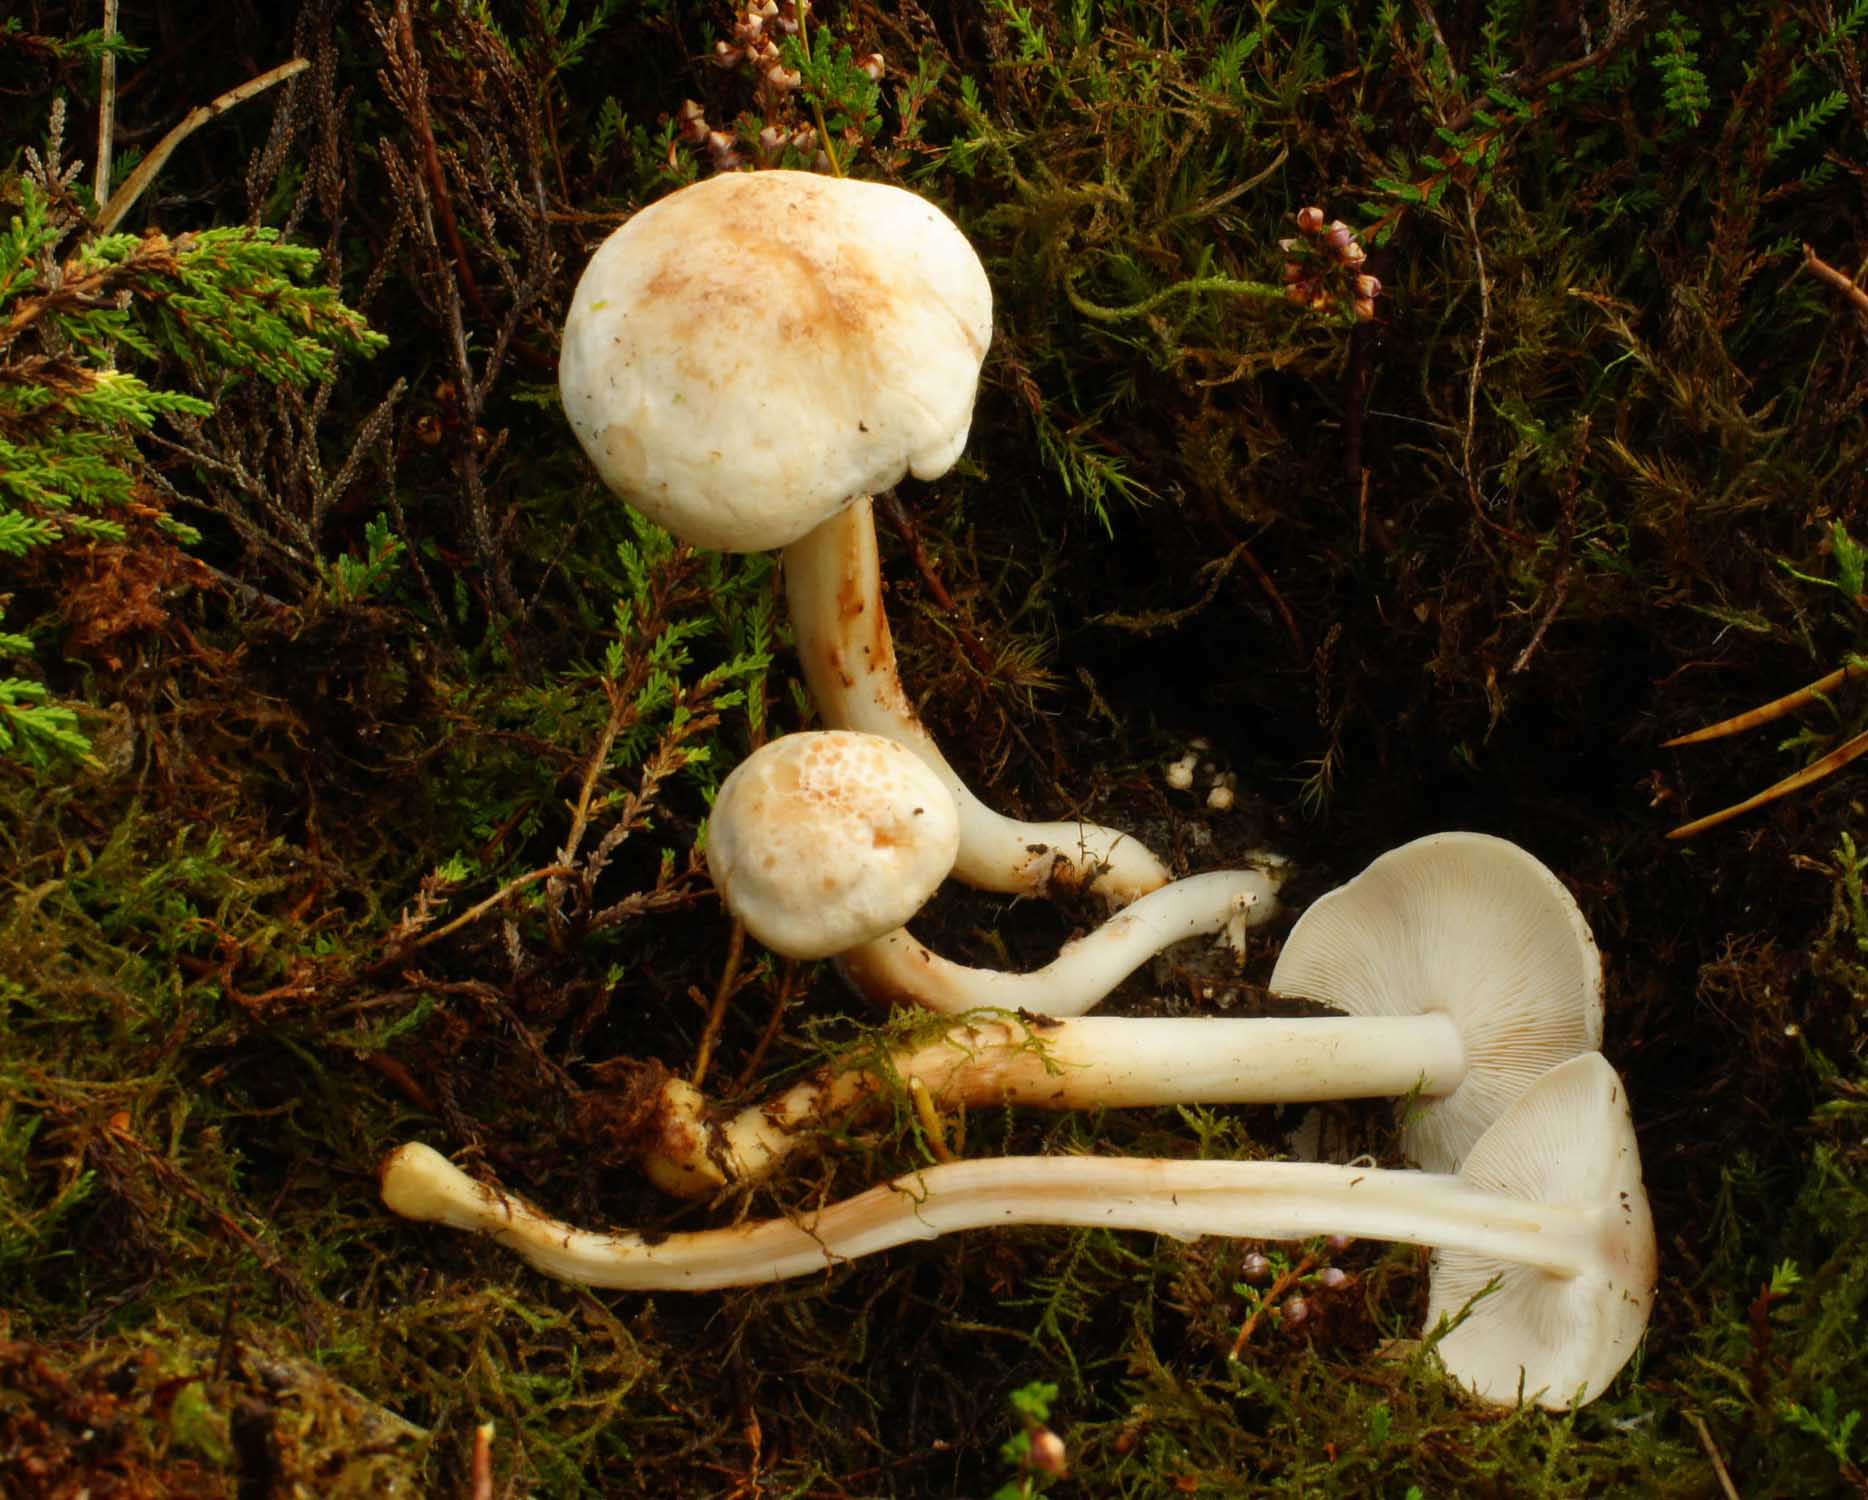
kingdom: Fungi
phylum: Basidiomycota
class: Agaricomycetes
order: Agaricales
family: Omphalotaceae
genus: Rhodocollybia
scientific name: Rhodocollybia maculata
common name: plettet fladhat
